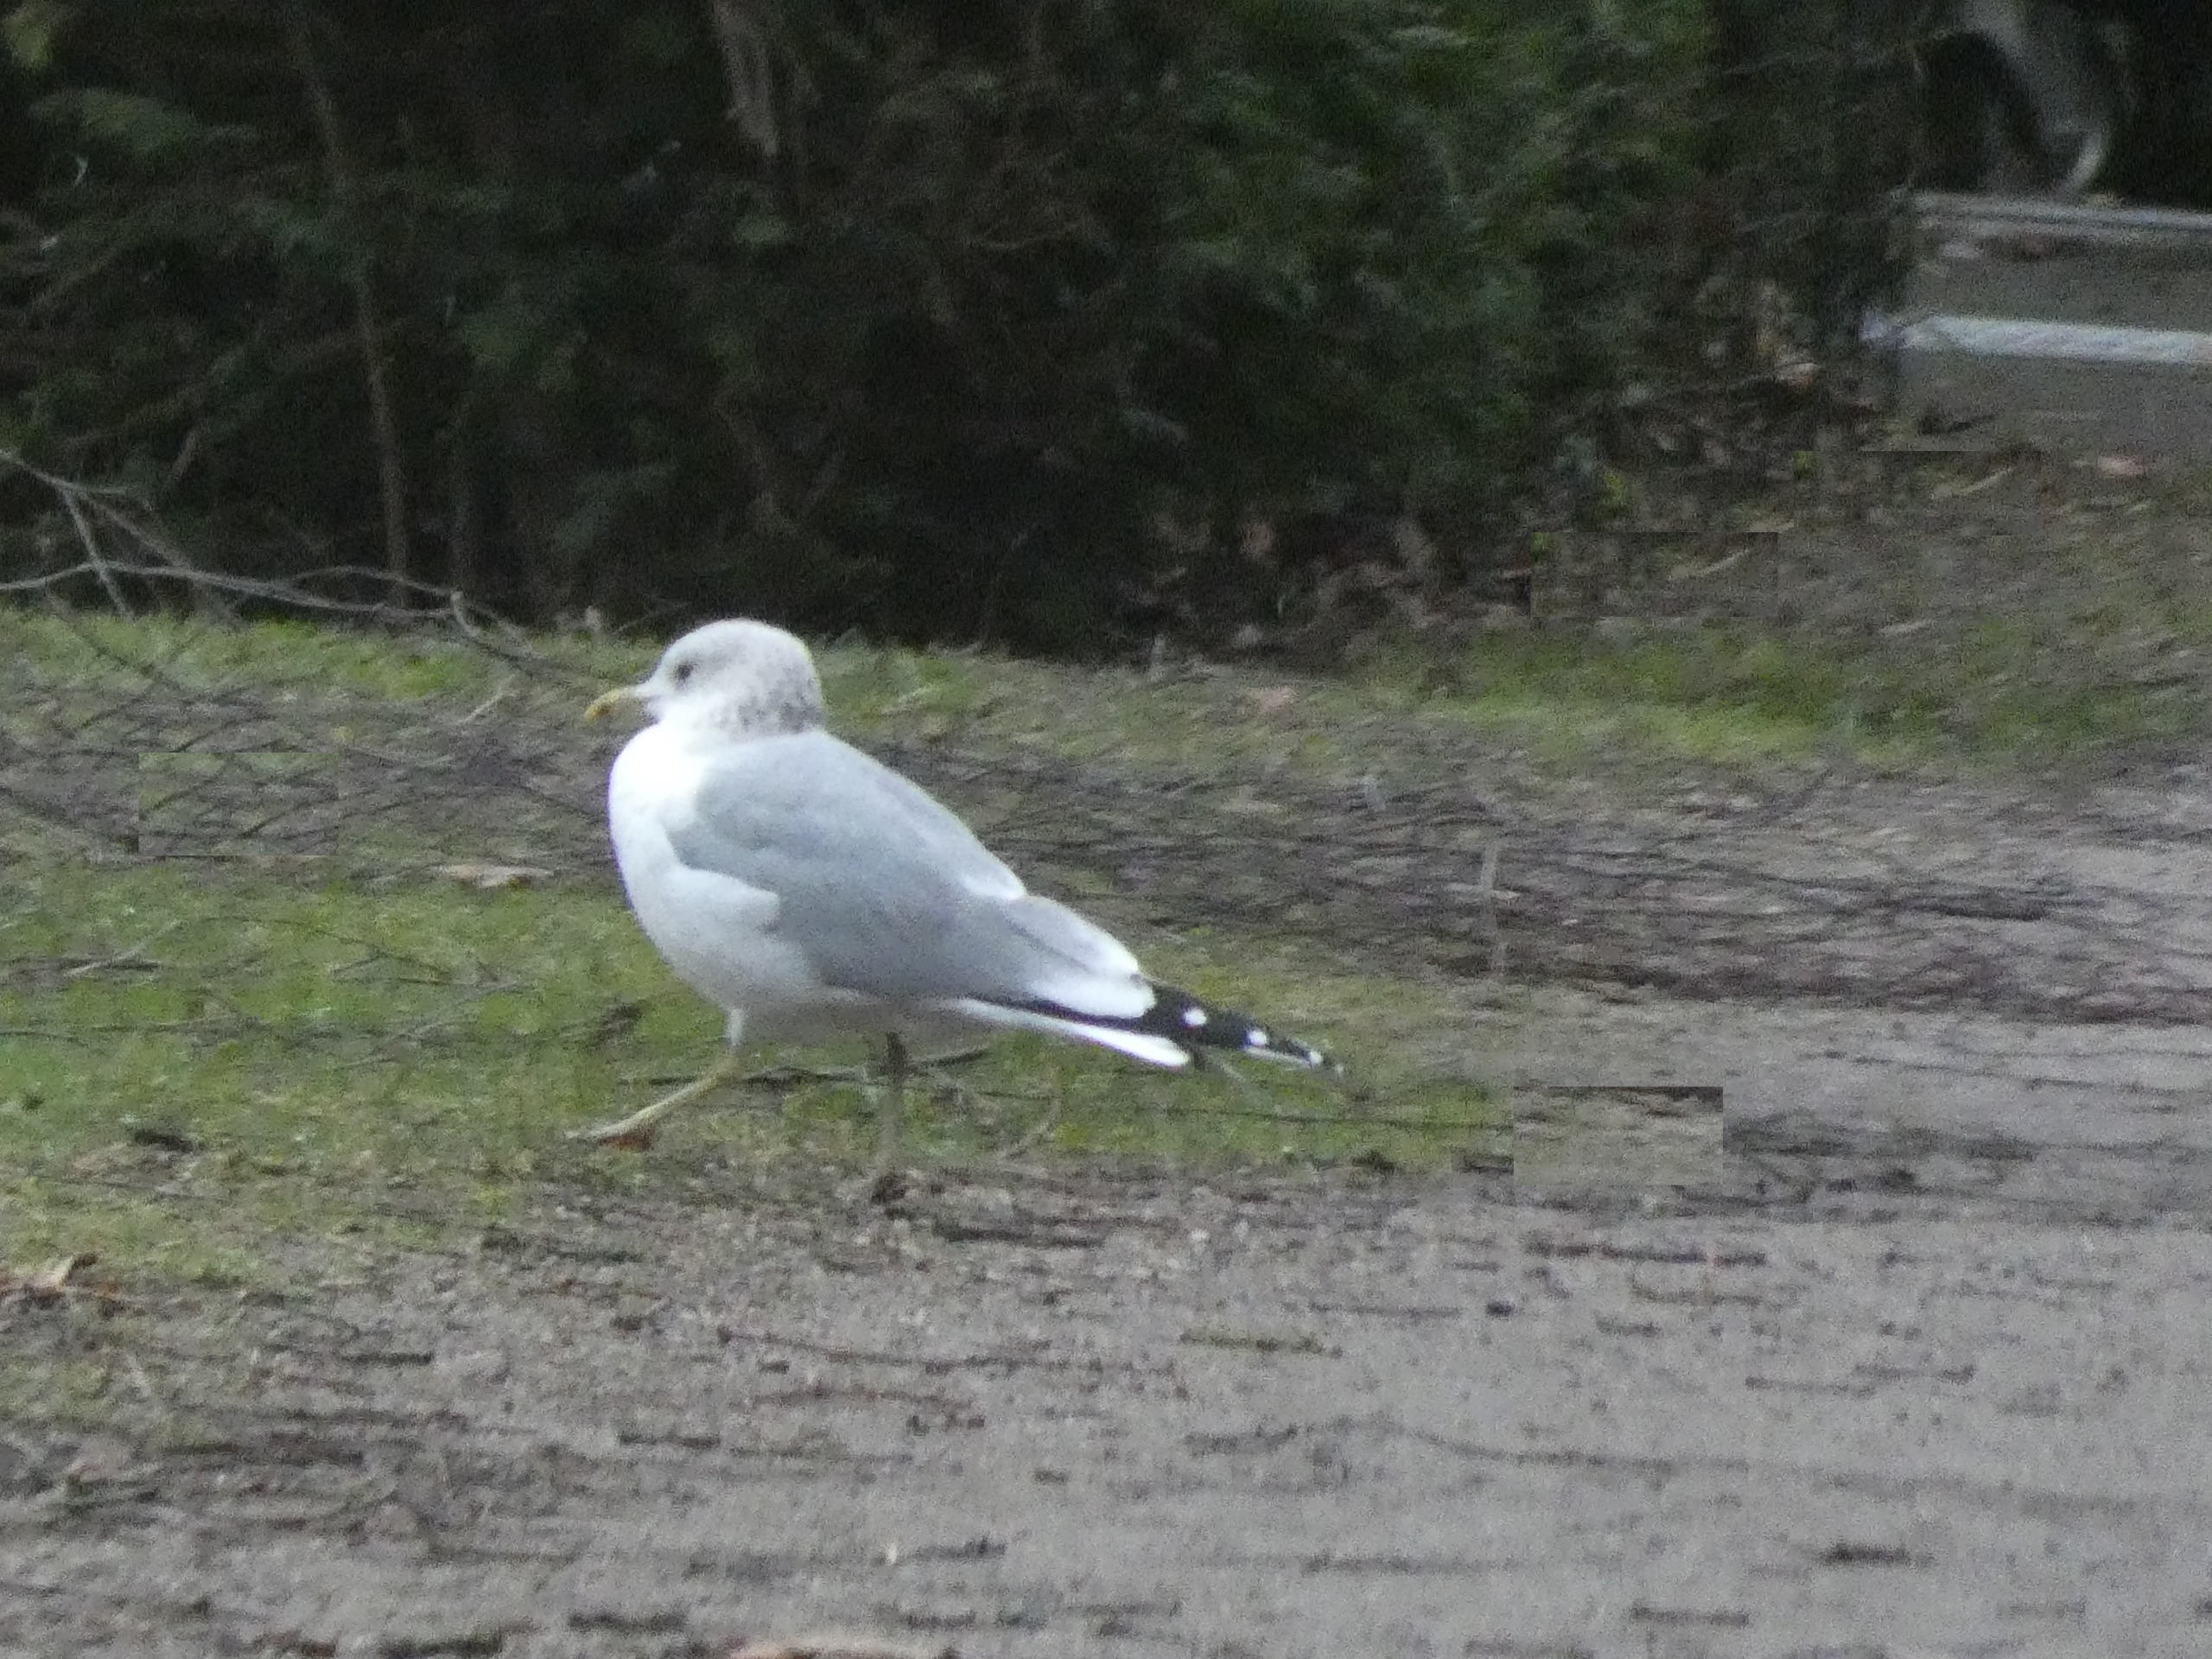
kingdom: Animalia
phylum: Chordata
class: Aves
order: Charadriiformes
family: Laridae
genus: Larus
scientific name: Larus canus
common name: Stormmåge
